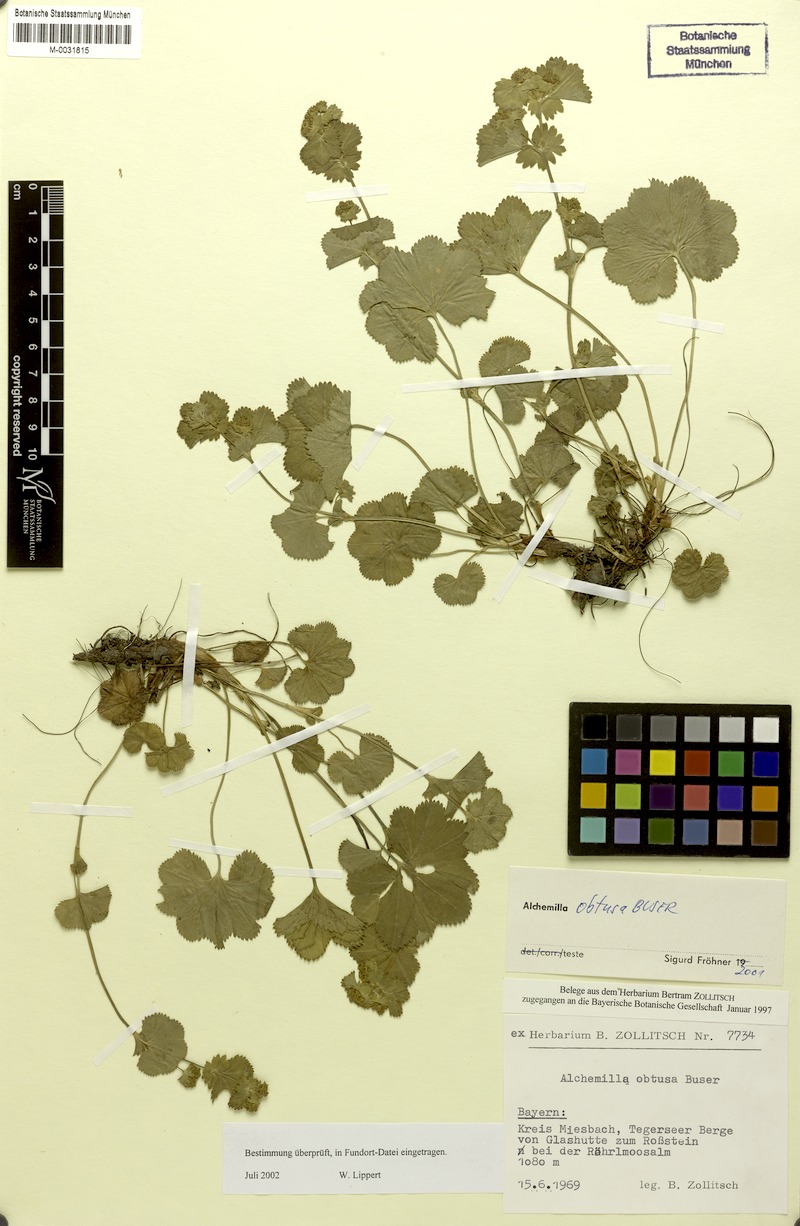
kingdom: Plantae
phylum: Tracheophyta
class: Magnoliopsida
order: Rosales
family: Rosaceae
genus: Alchemilla
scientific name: Alchemilla obtusa
